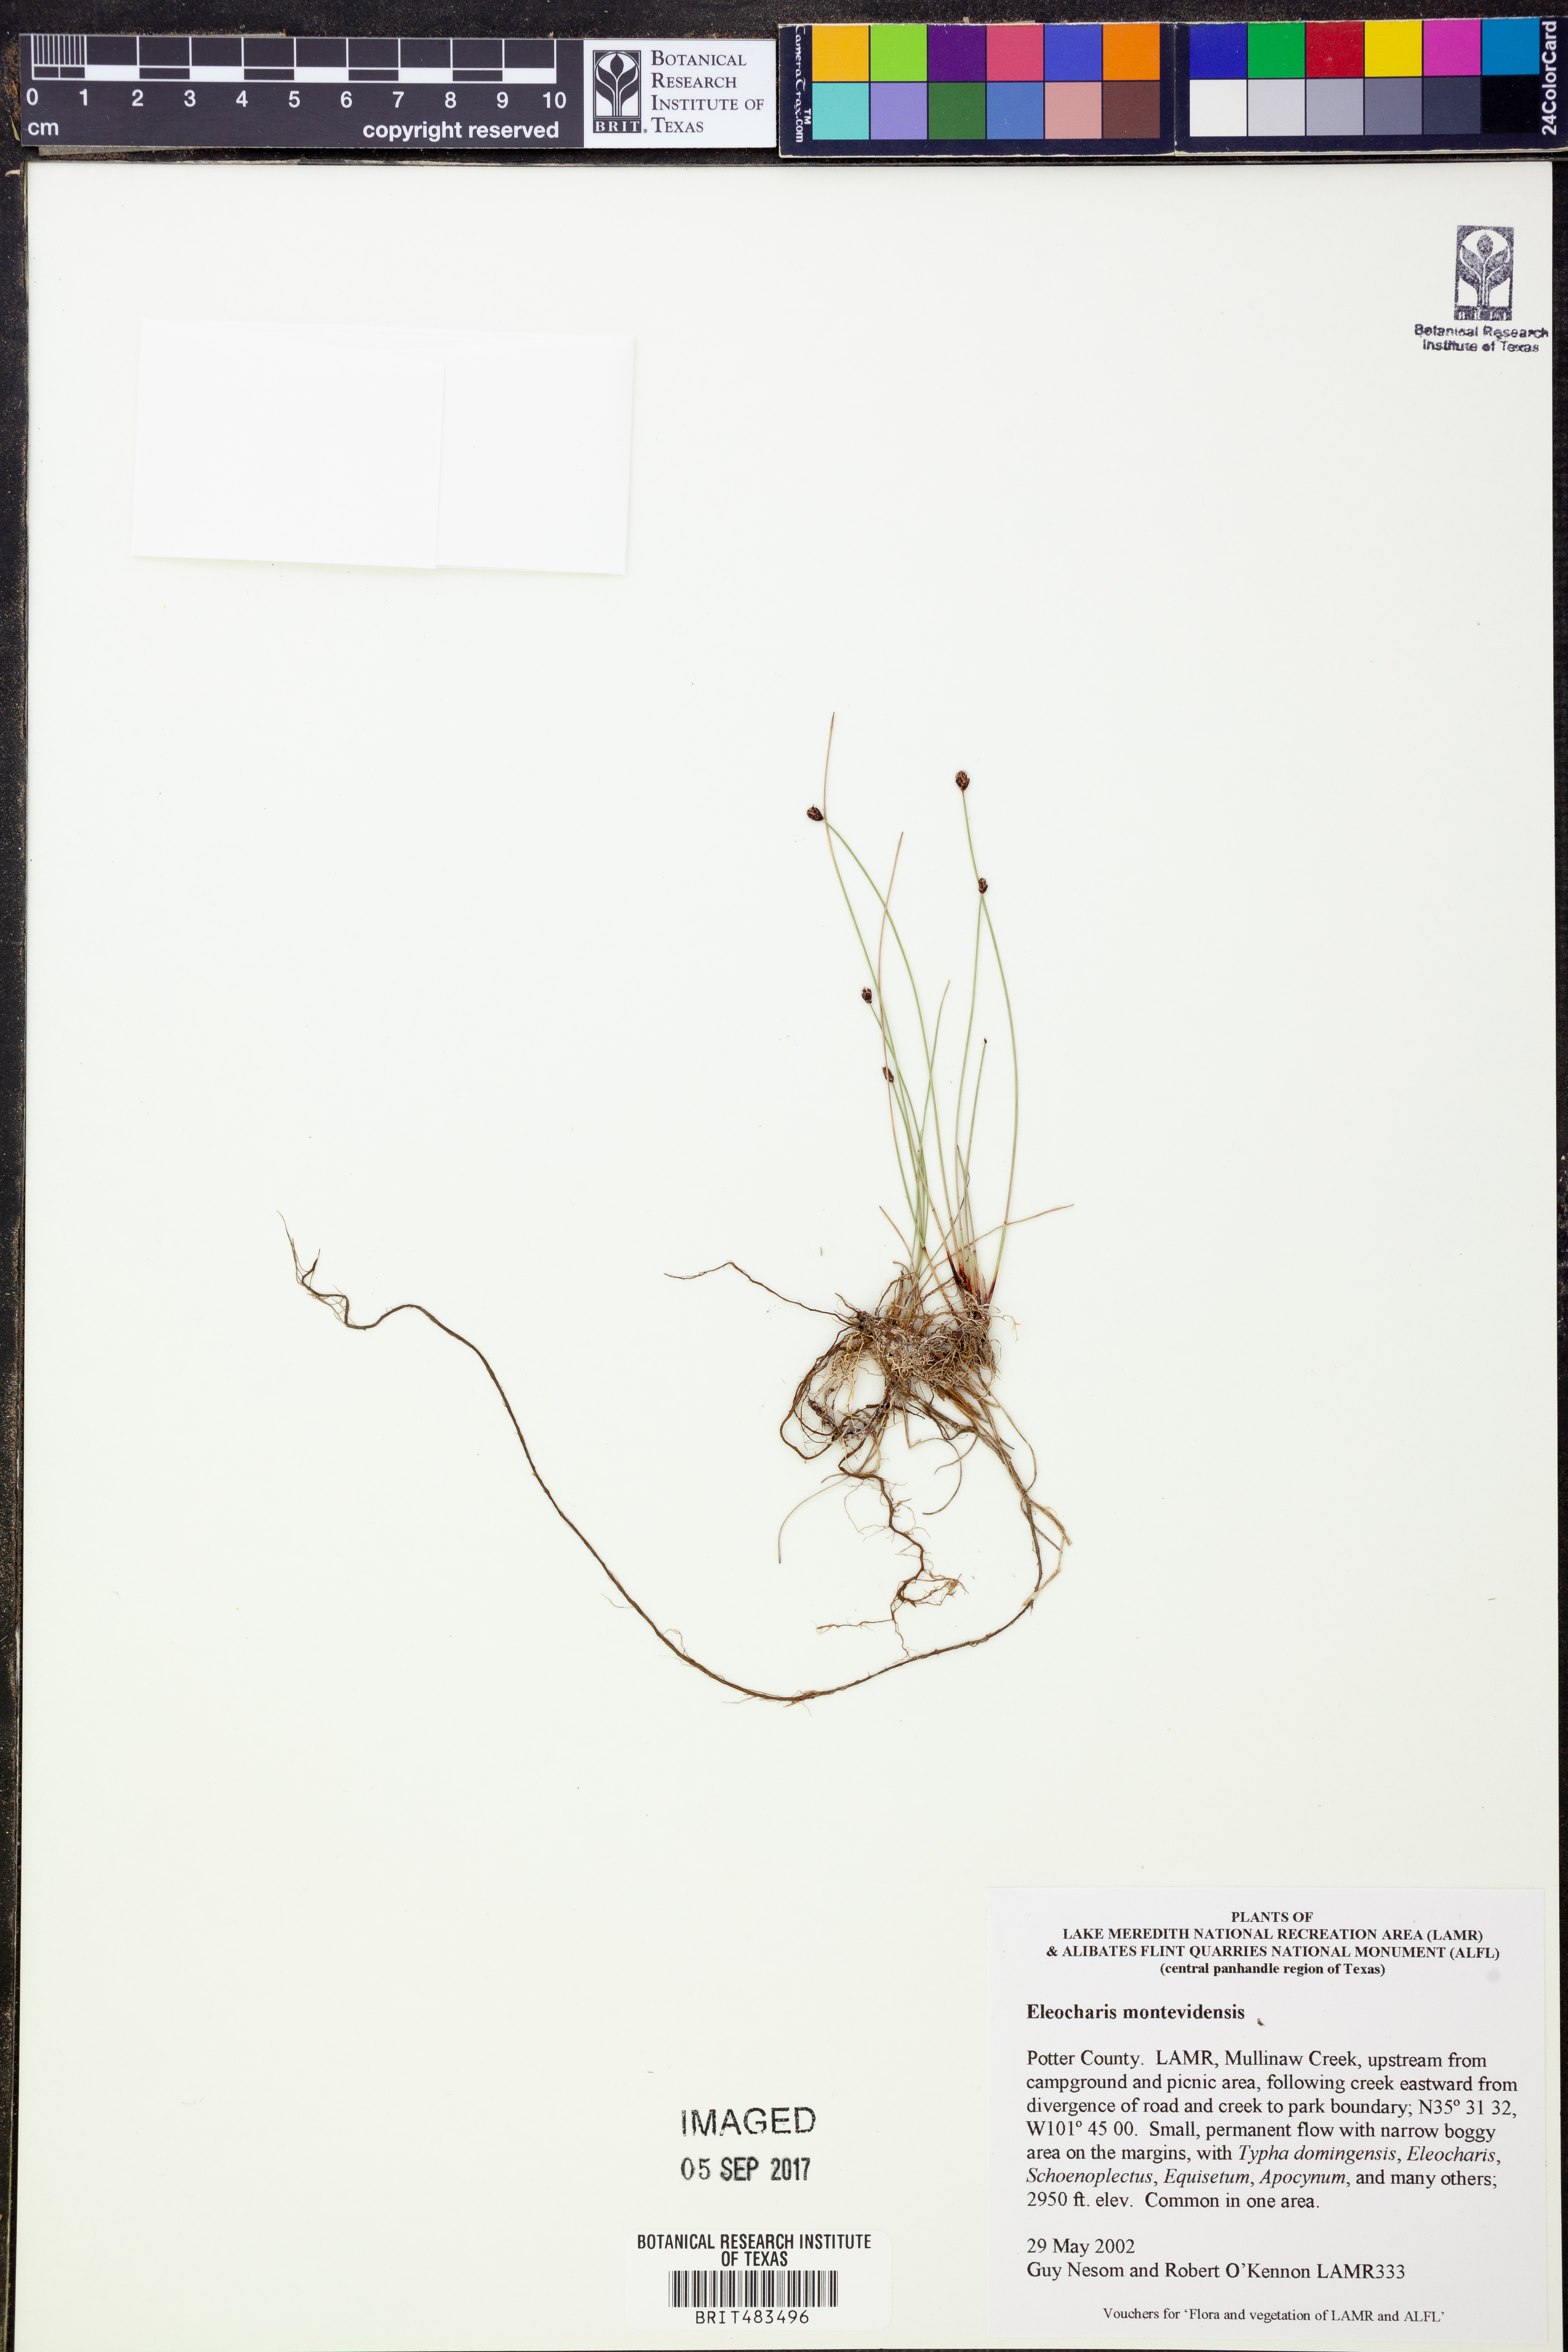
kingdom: Plantae
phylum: Tracheophyta
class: Liliopsida
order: Poales
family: Cyperaceae
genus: Eleocharis
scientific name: Eleocharis montevidensis
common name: Sand spike-rush
